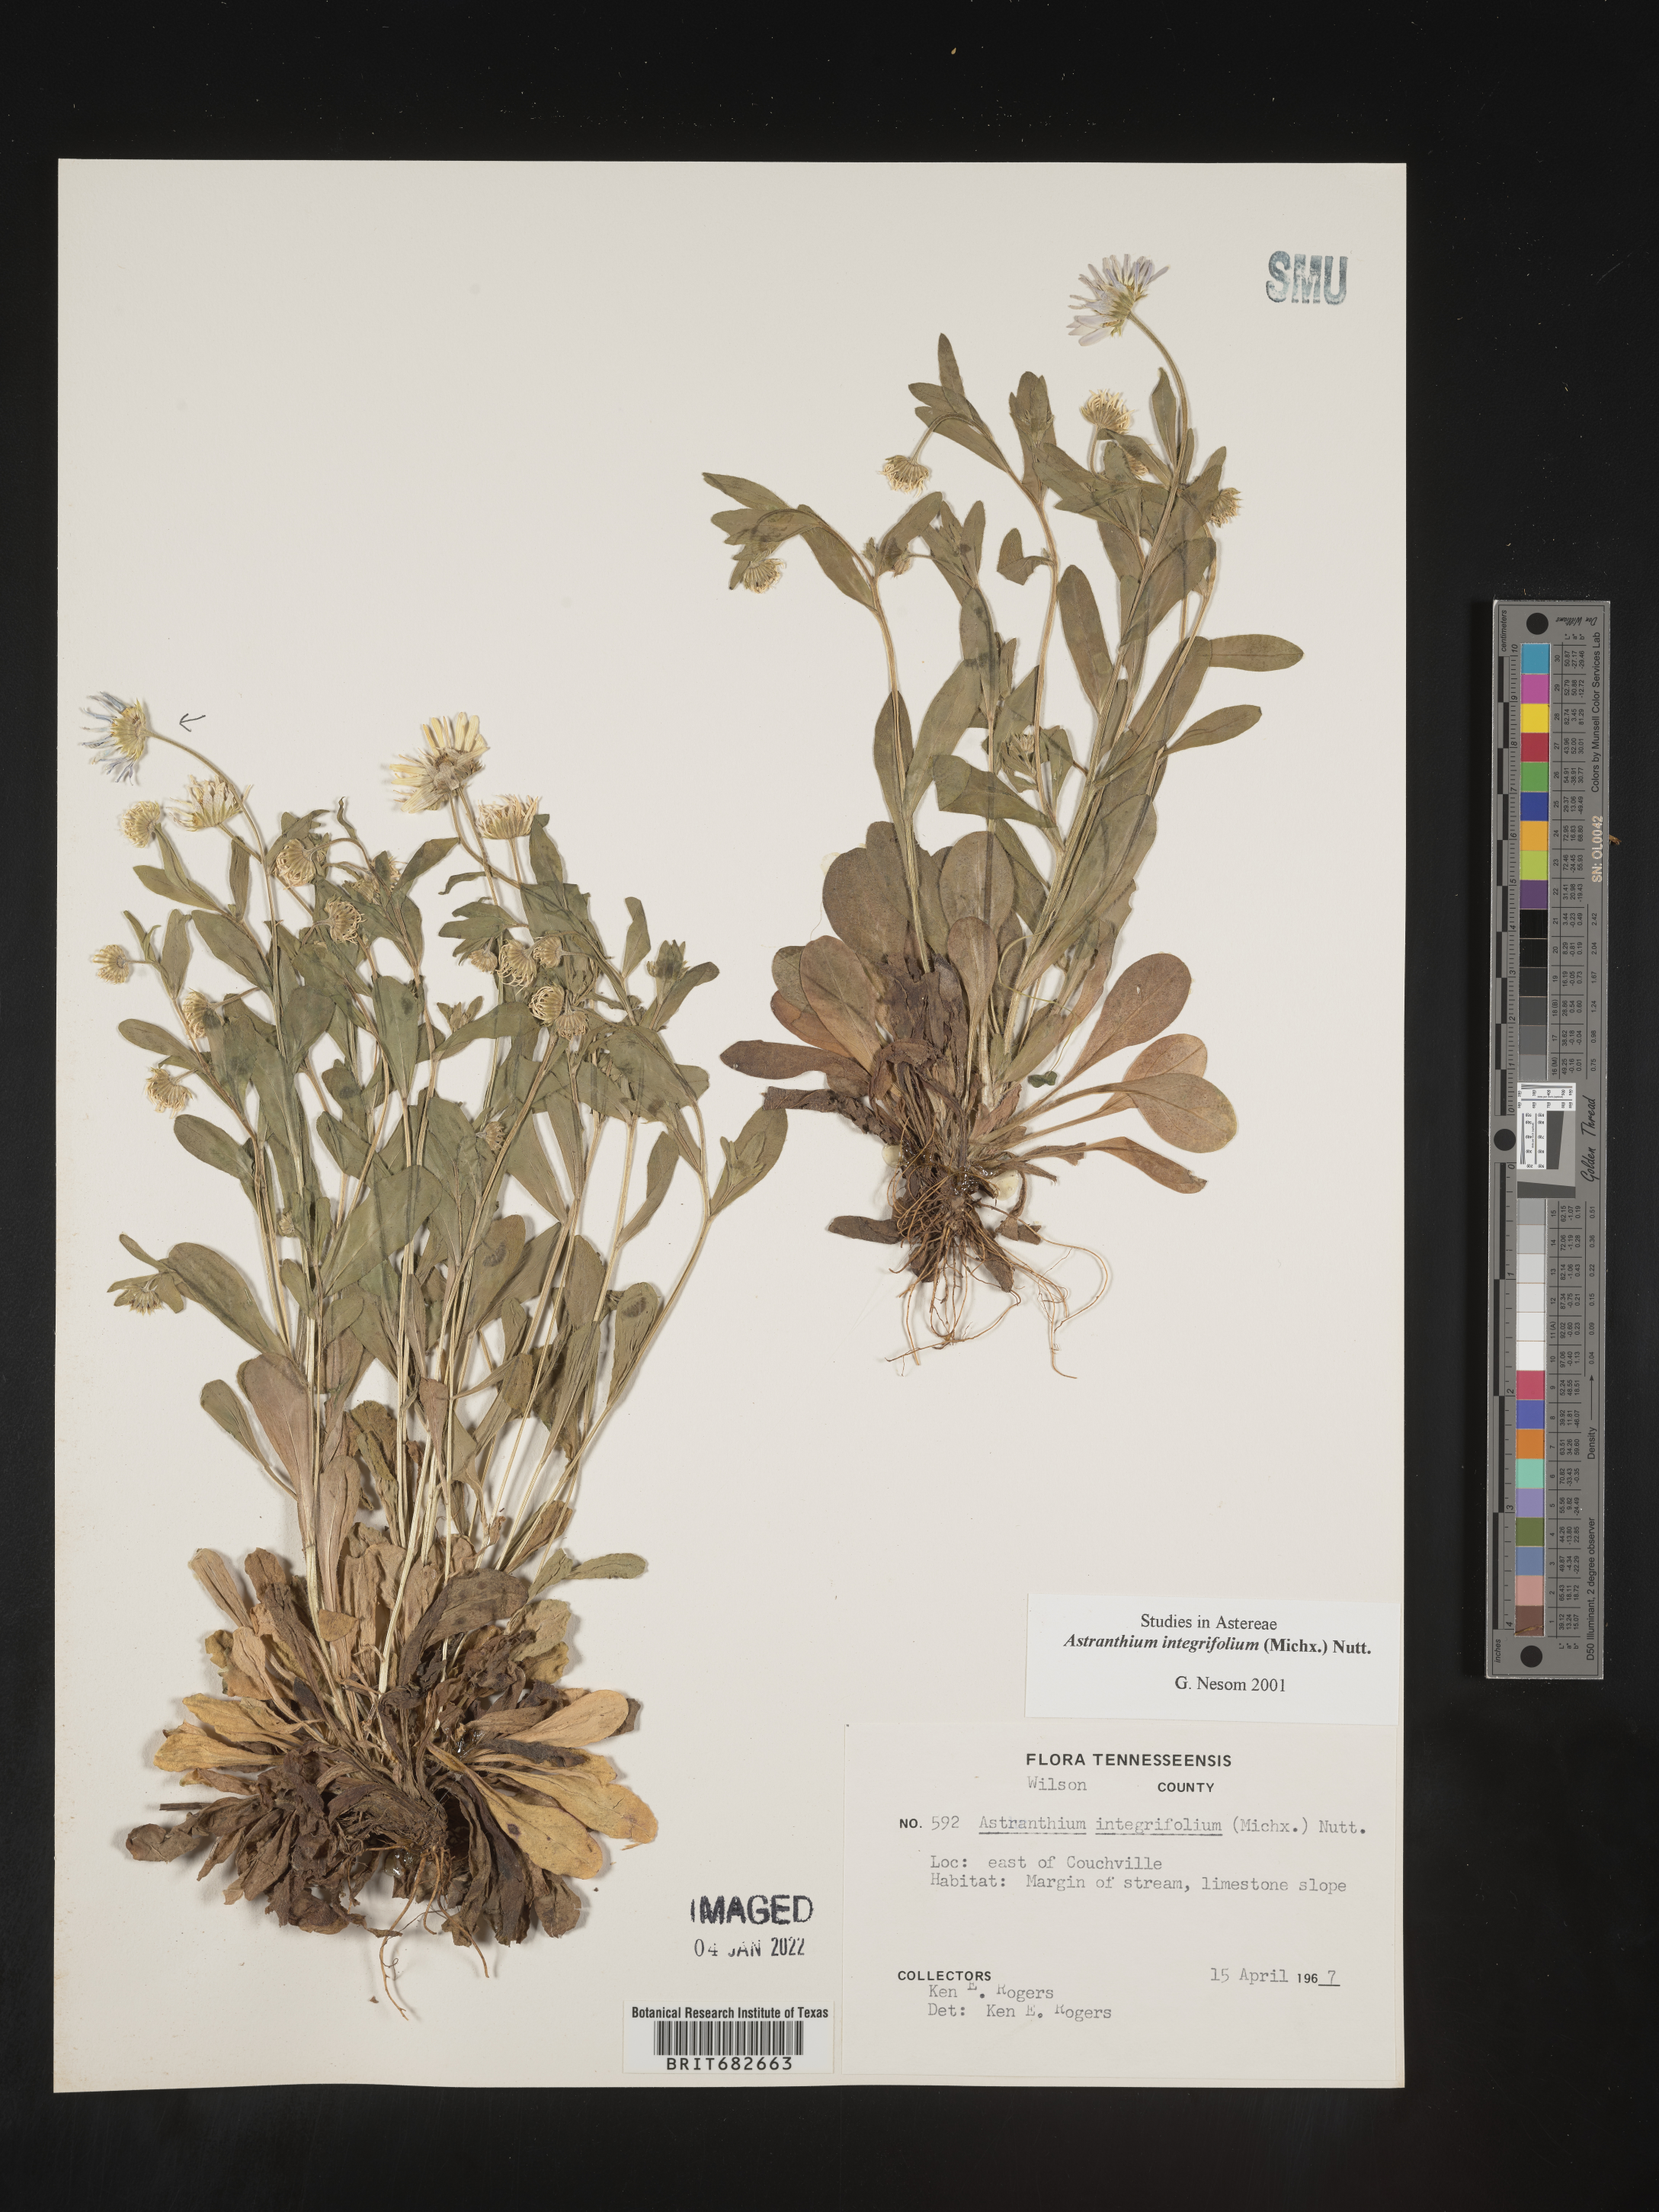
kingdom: Plantae
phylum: Tracheophyta
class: Magnoliopsida
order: Asterales
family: Asteraceae
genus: Astranthium
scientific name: Astranthium
